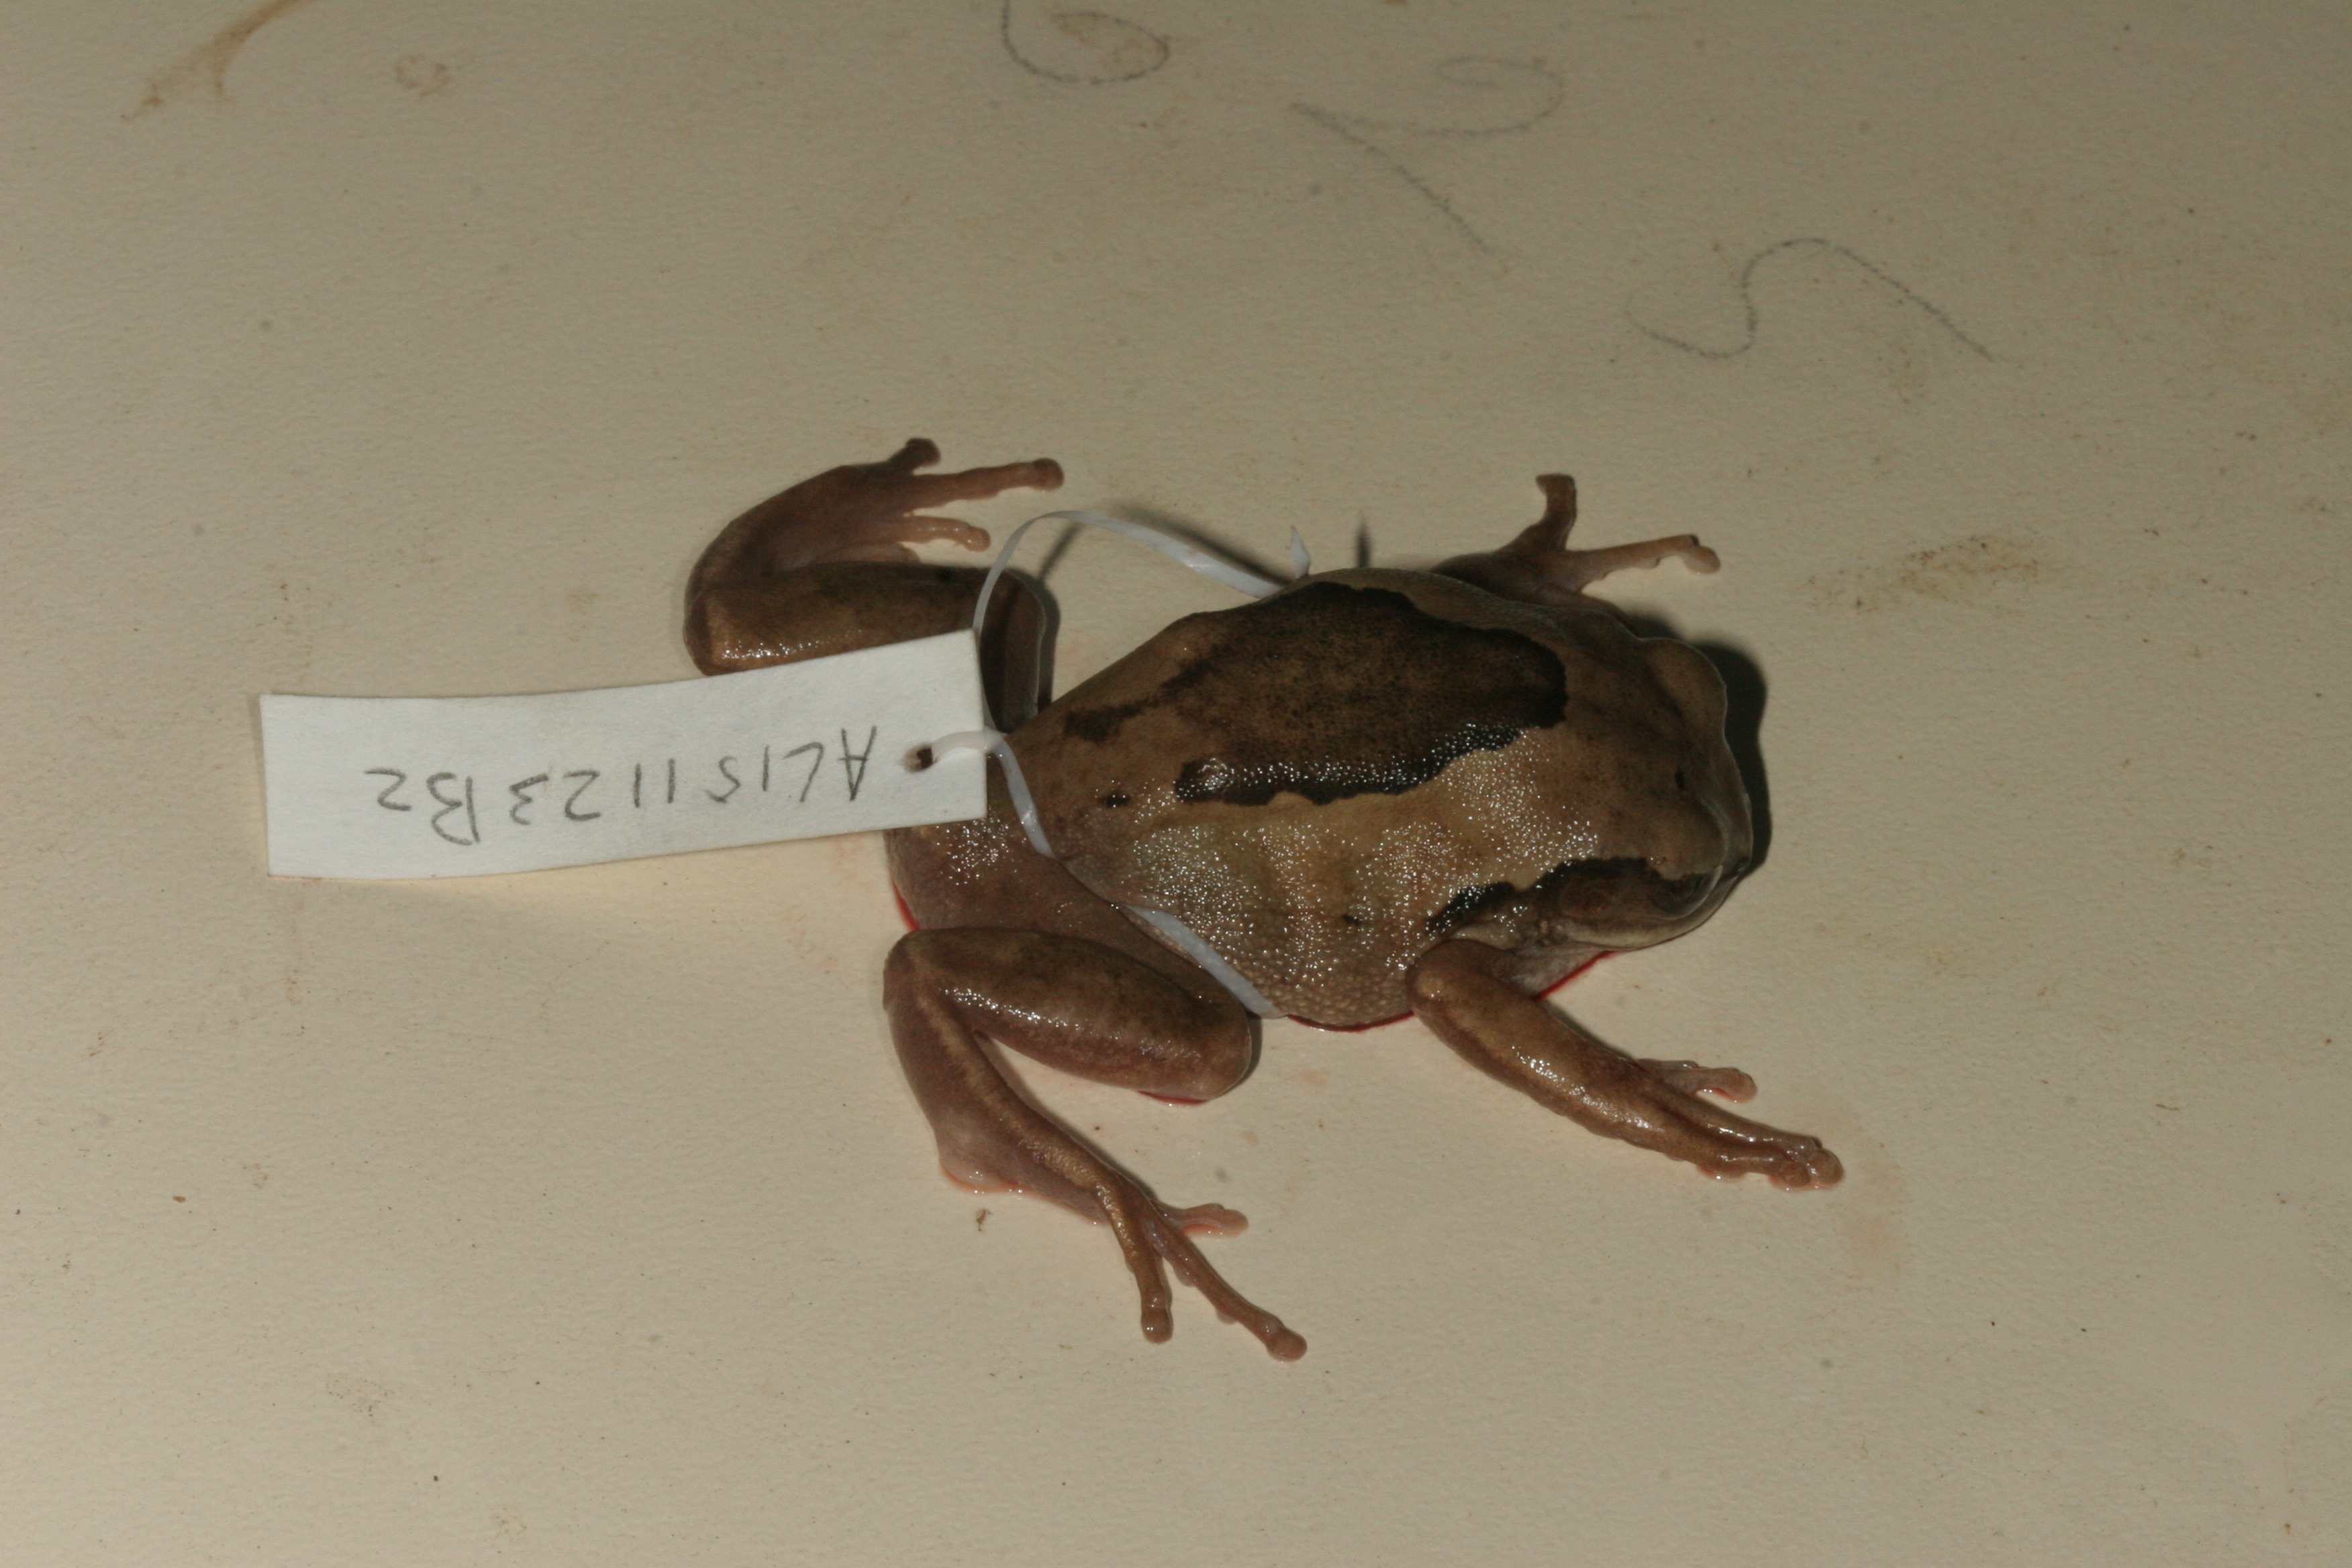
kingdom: Animalia
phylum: Chordata
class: Amphibia
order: Anura
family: Arthroleptidae
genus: Leptopelis
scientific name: Leptopelis mossambicus
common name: Mozambique tree frog
